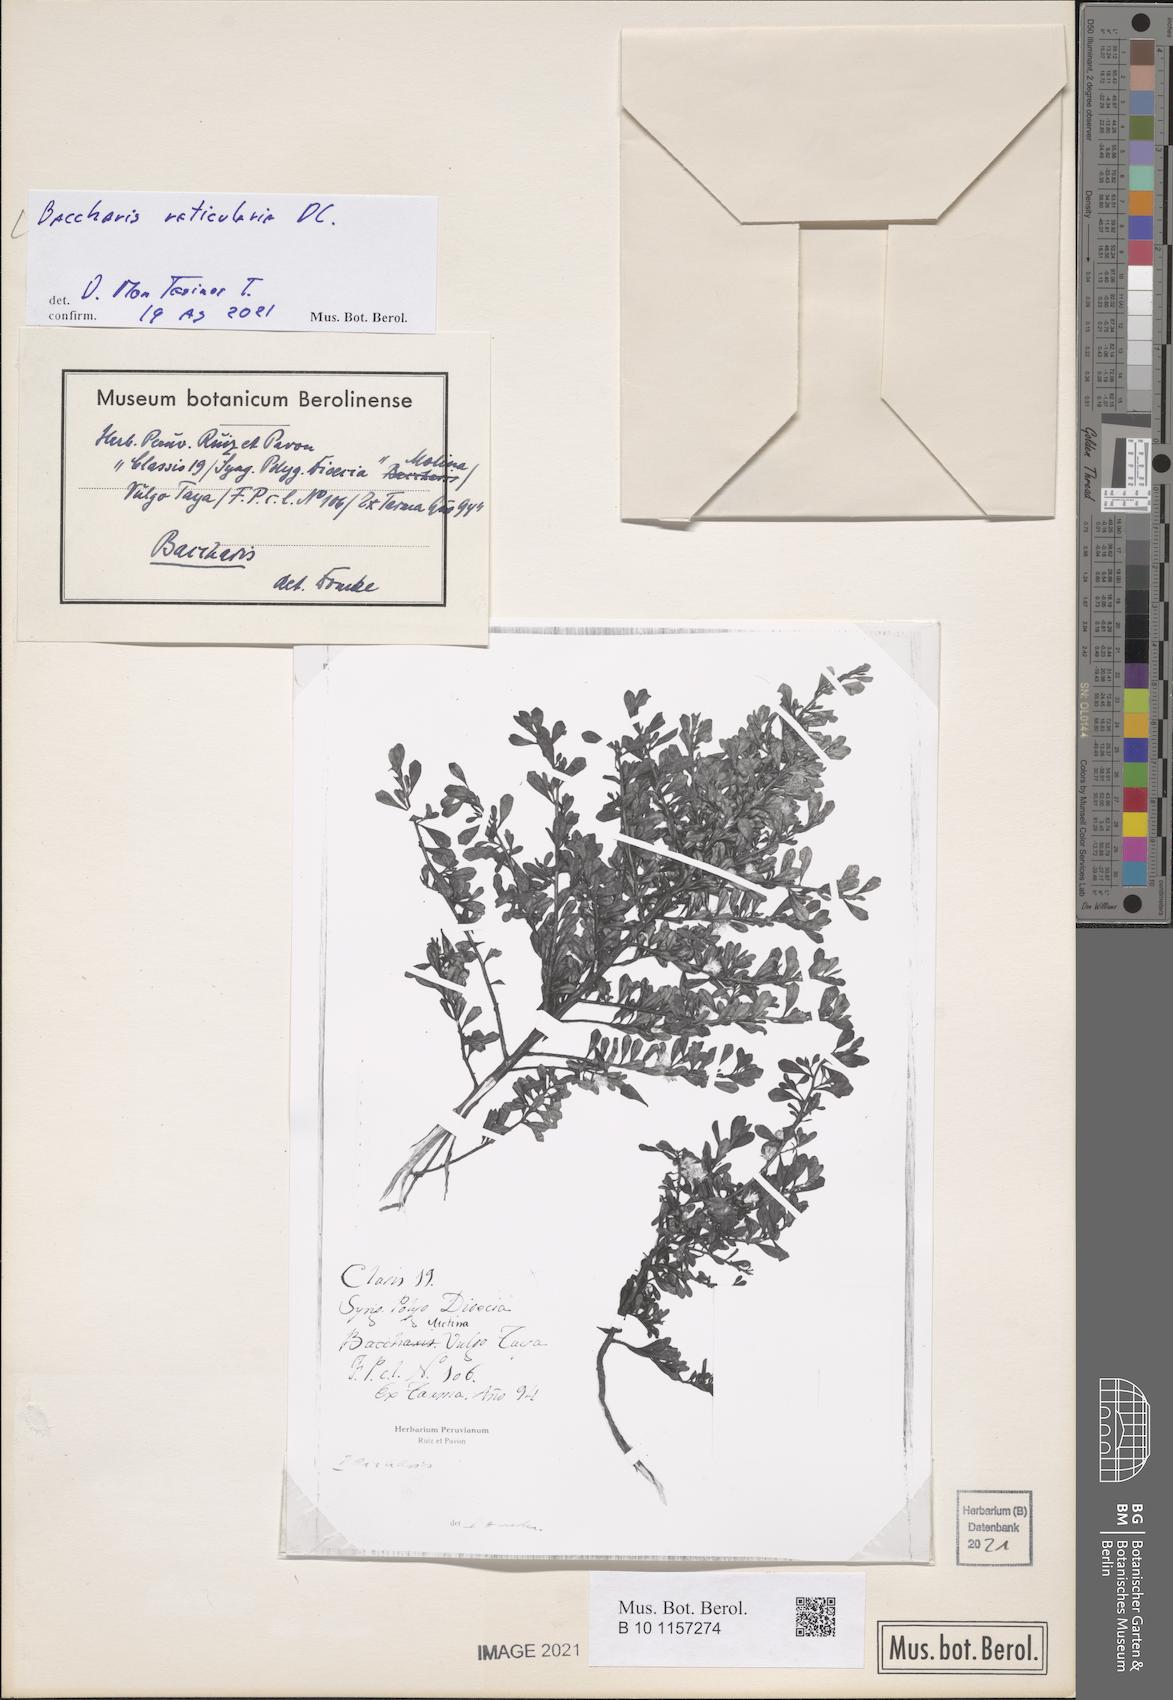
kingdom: Plantae
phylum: Tracheophyta
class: Magnoliopsida
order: Asterales
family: Asteraceae
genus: Baccharis
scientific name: Baccharis reticularia
